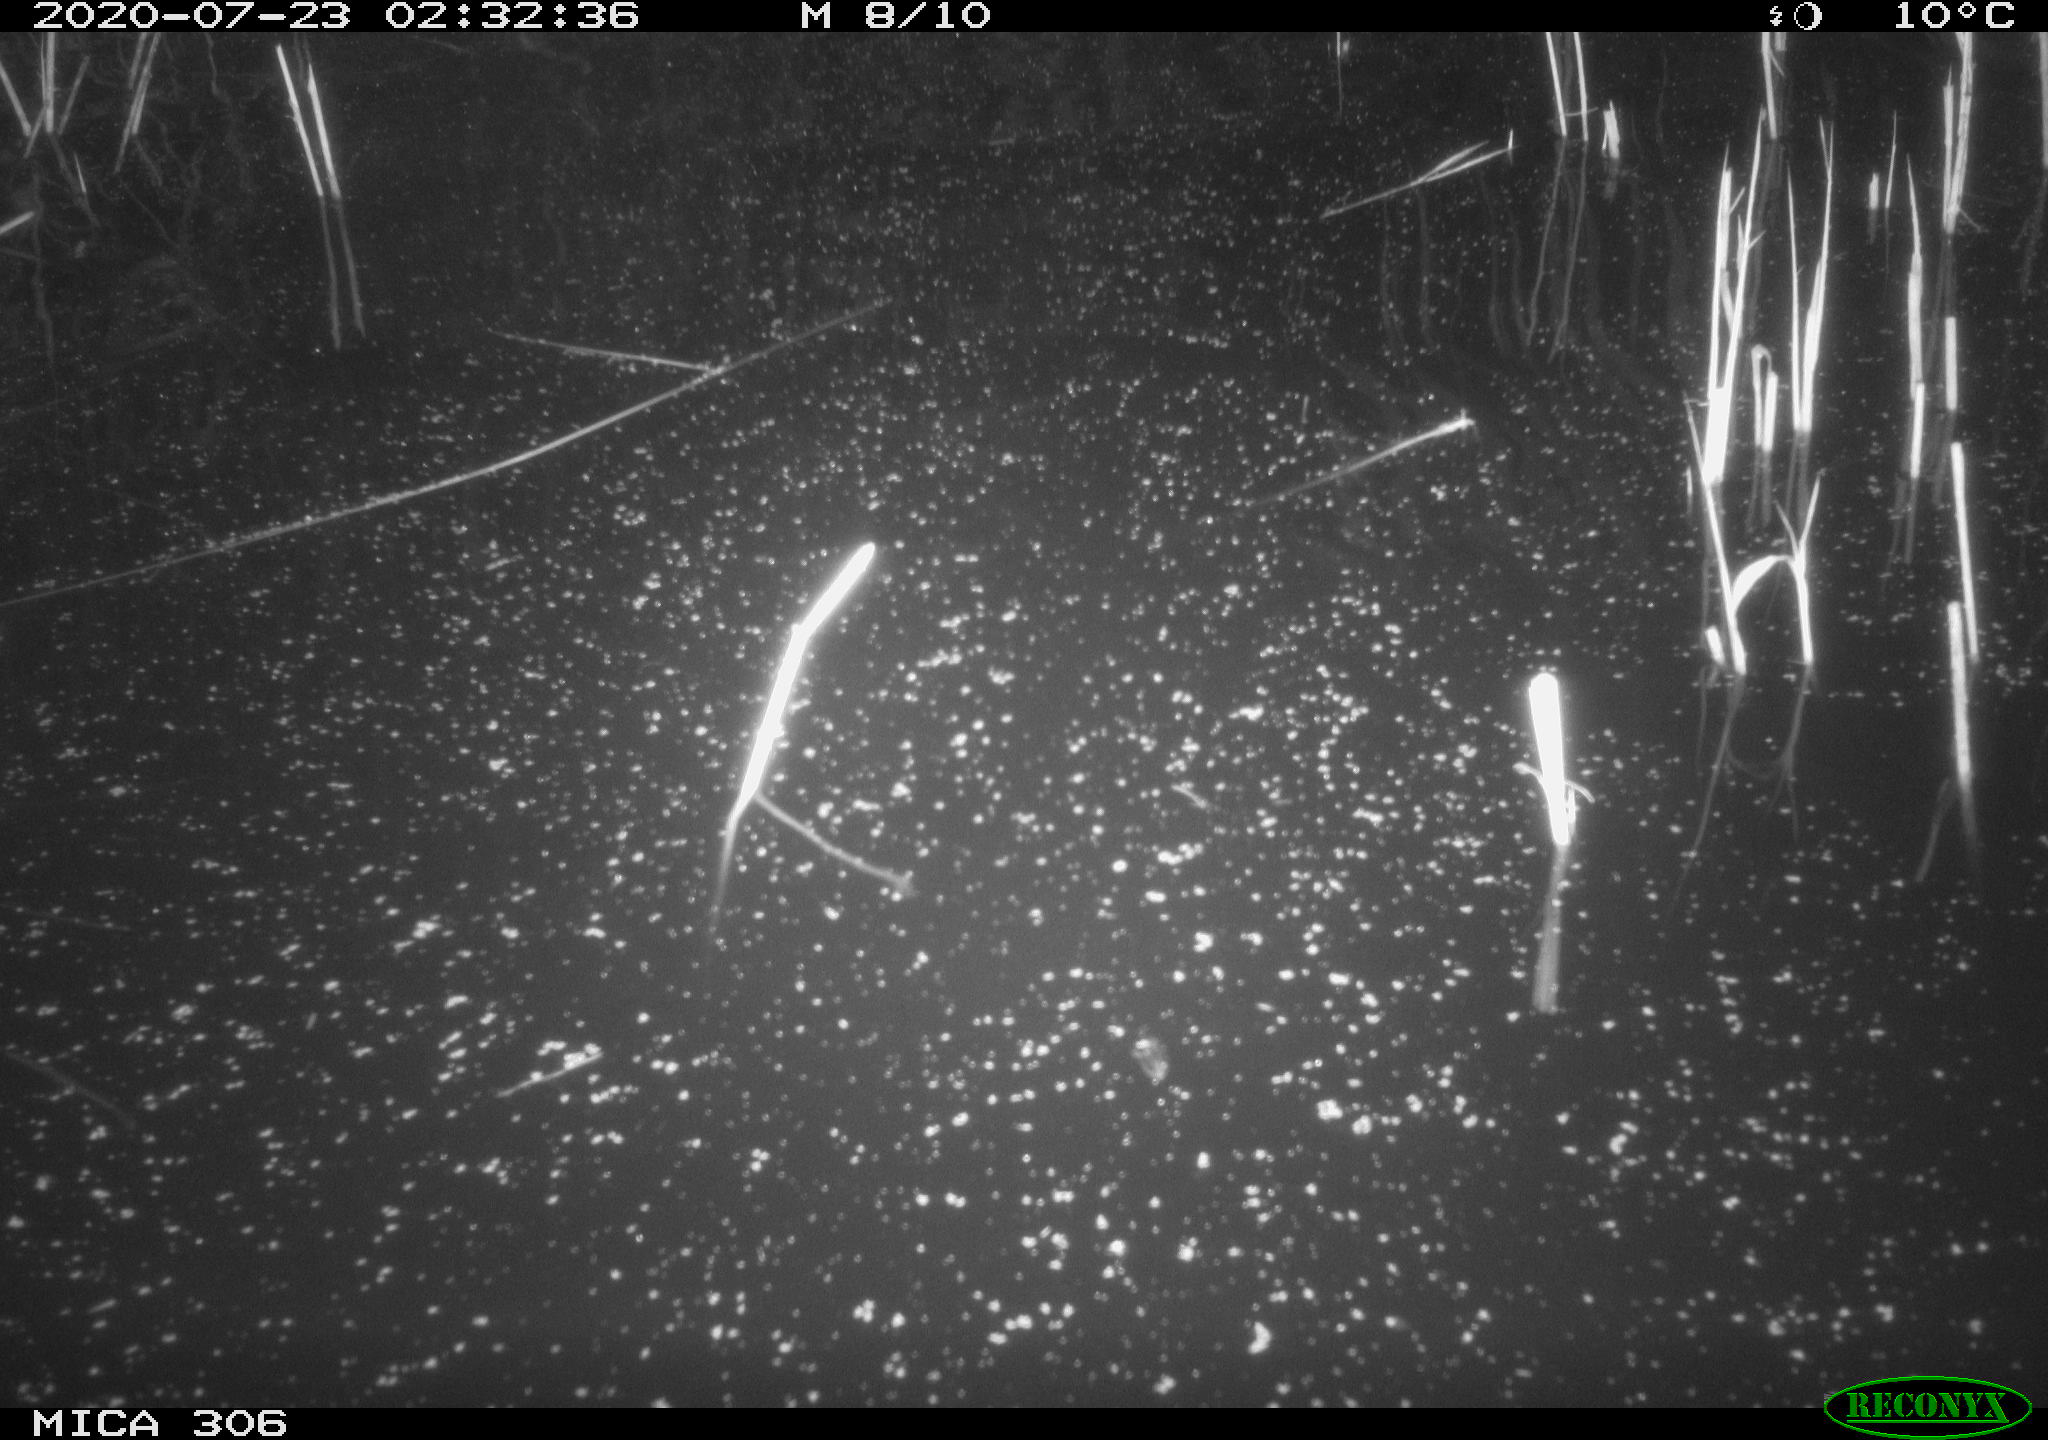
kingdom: Animalia
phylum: Chordata
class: Mammalia
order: Rodentia
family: Cricetidae
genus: Ondatra
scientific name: Ondatra zibethicus
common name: Muskrat
